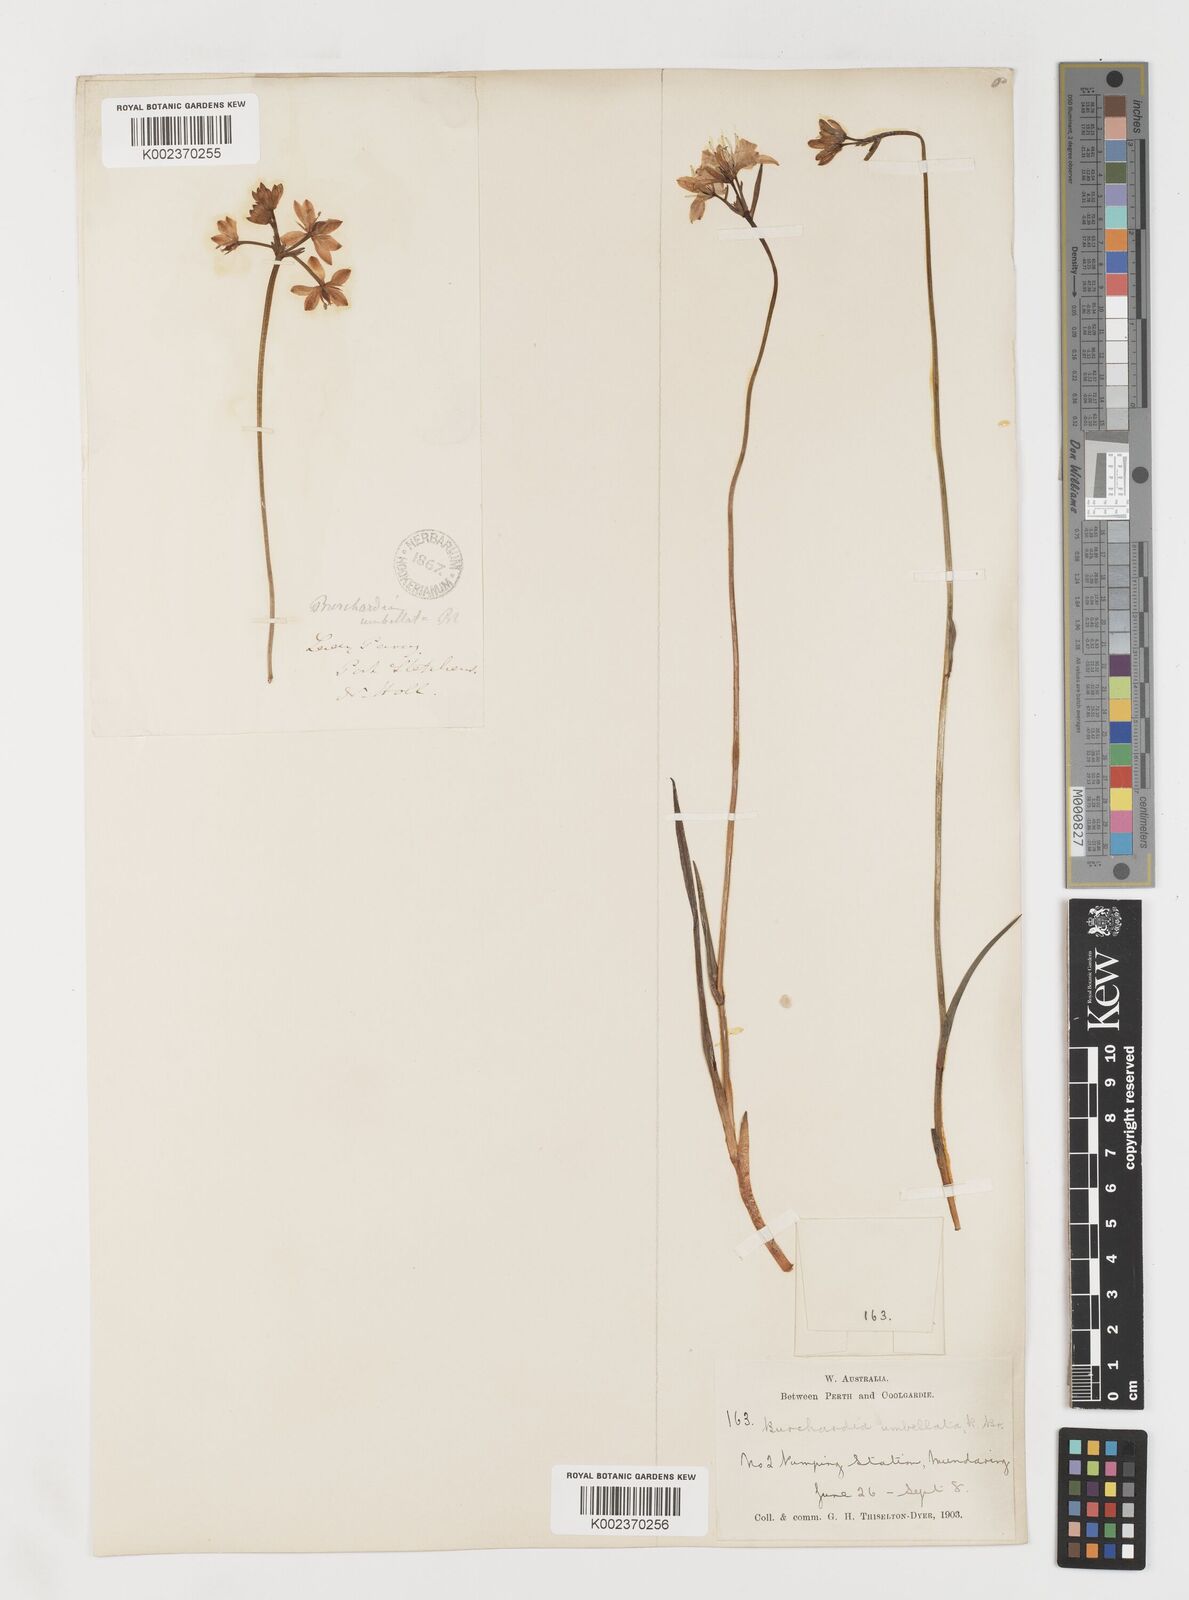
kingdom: Plantae
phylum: Tracheophyta
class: Liliopsida
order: Liliales
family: Colchicaceae
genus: Burchardia
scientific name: Burchardia umbellata
